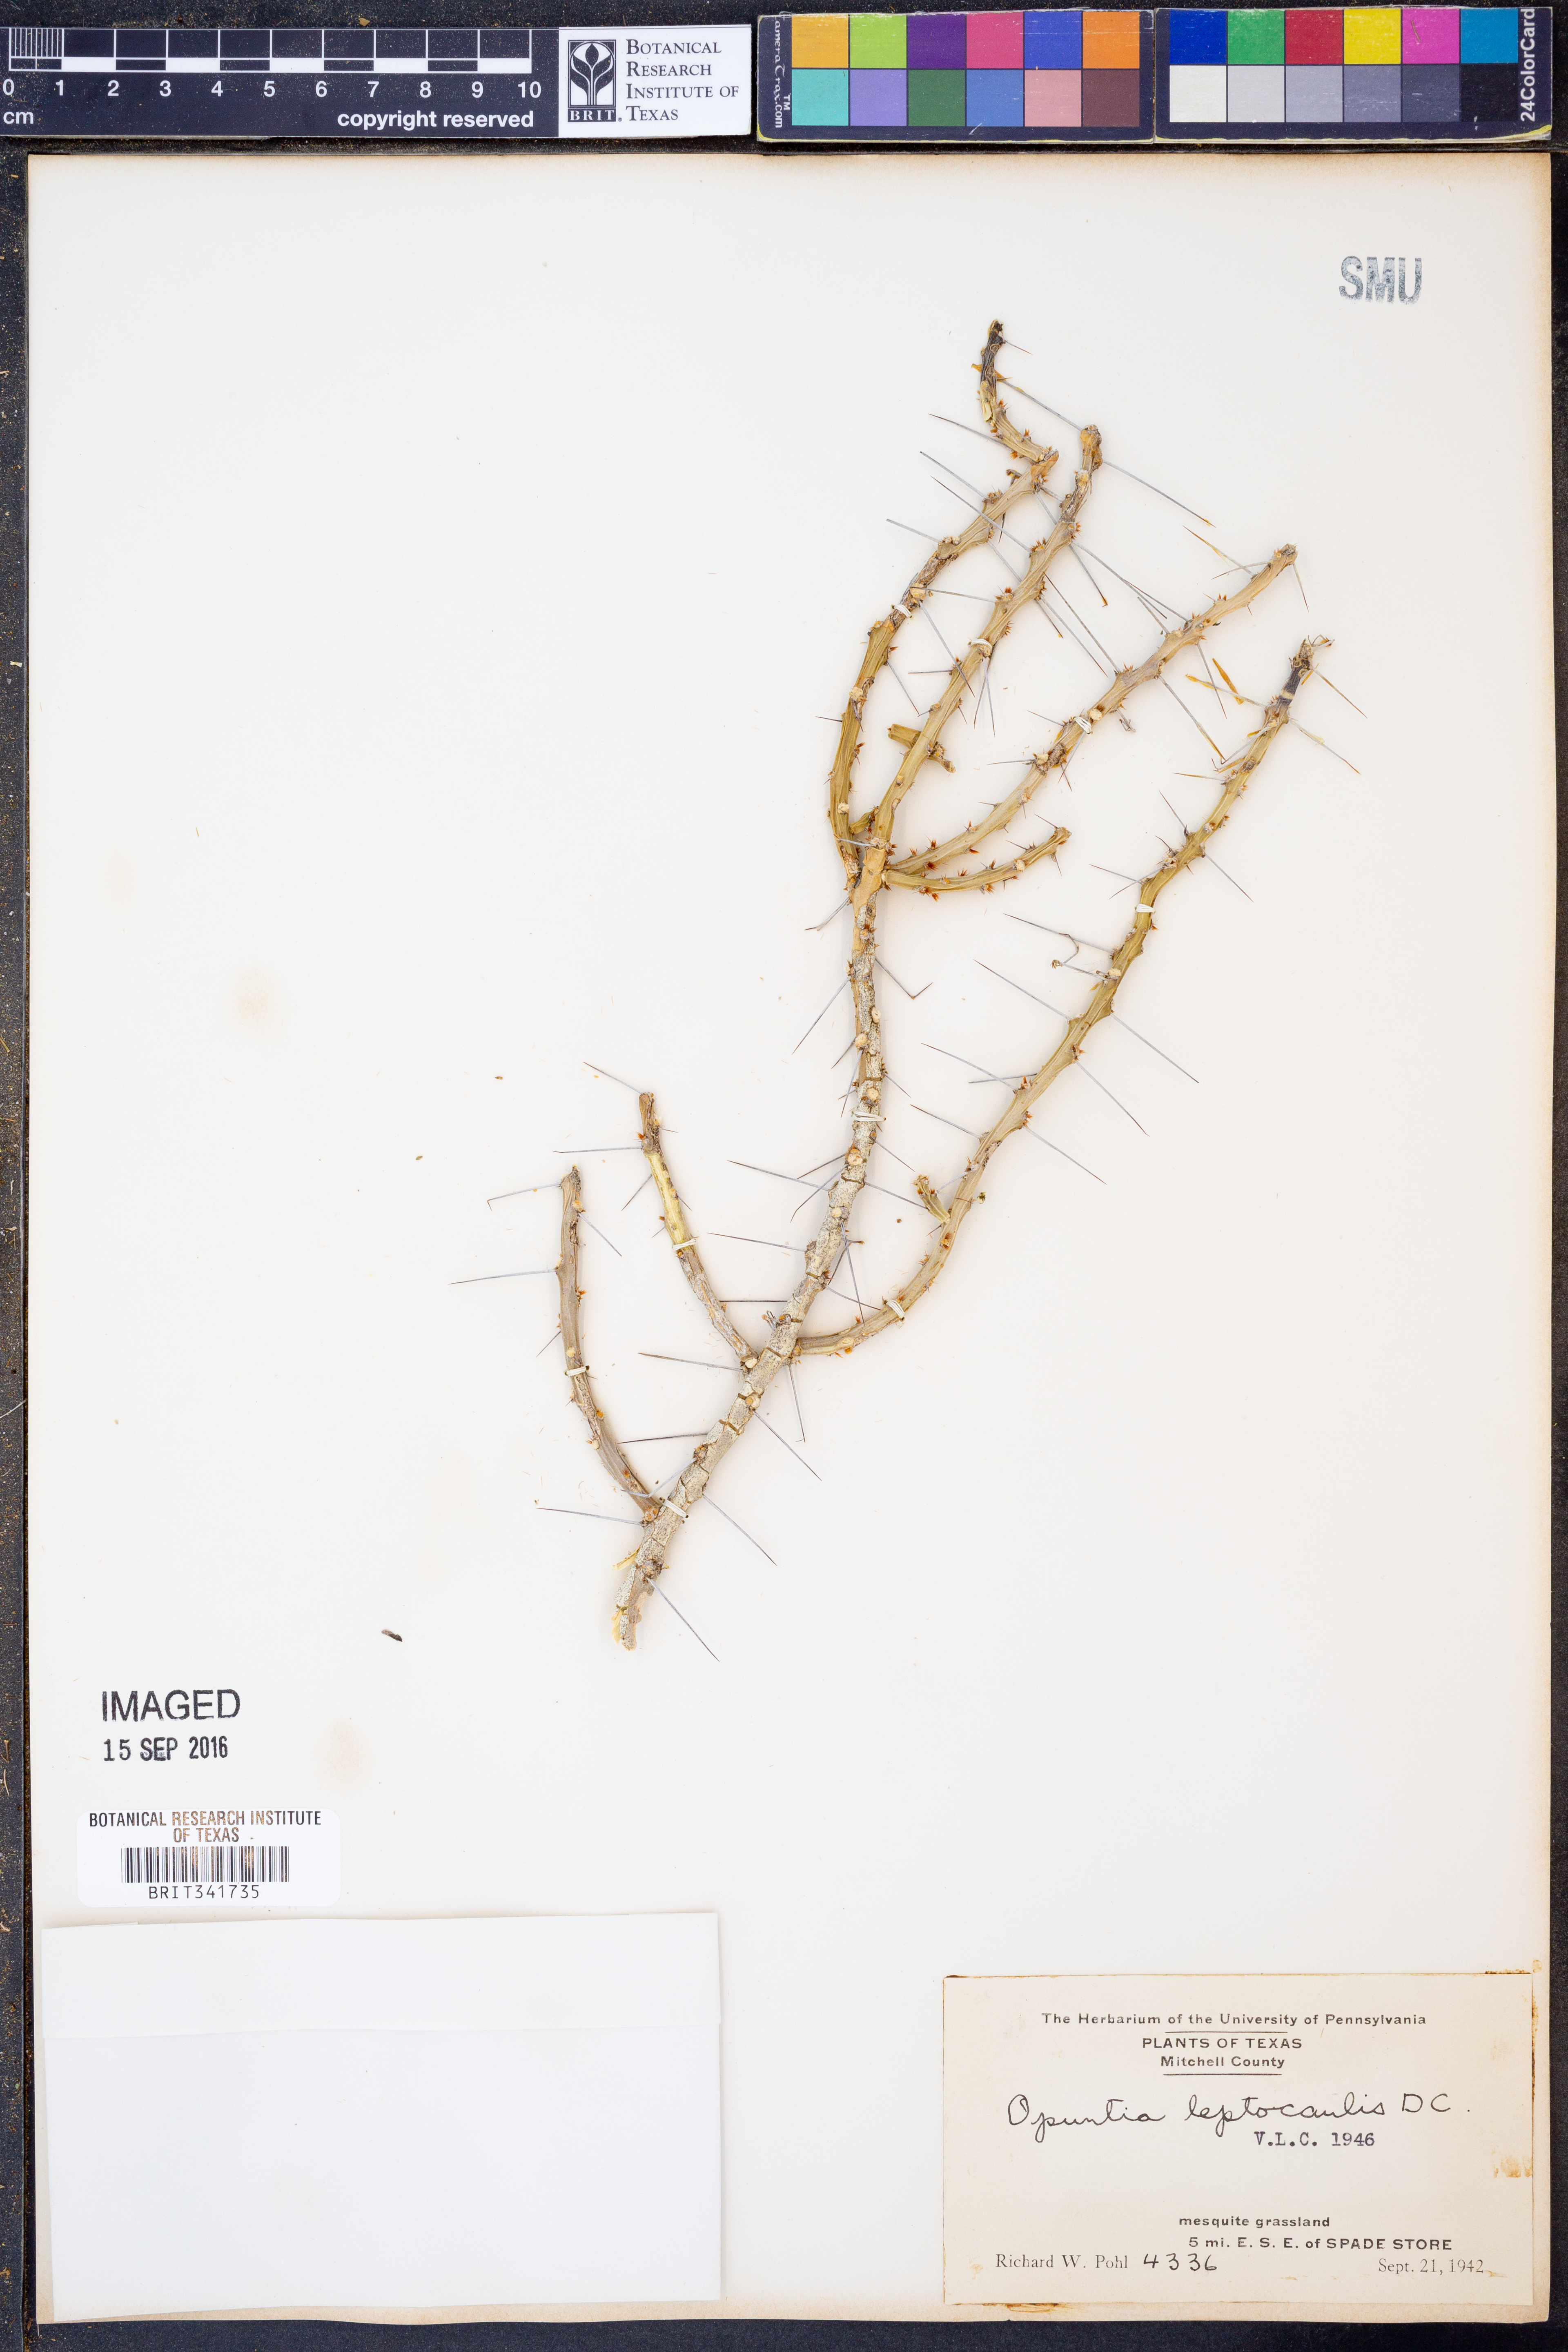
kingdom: Plantae
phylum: Tracheophyta
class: Magnoliopsida
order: Caryophyllales
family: Cactaceae
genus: Cylindropuntia
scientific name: Cylindropuntia leptocaulis
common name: Christmas cactus
